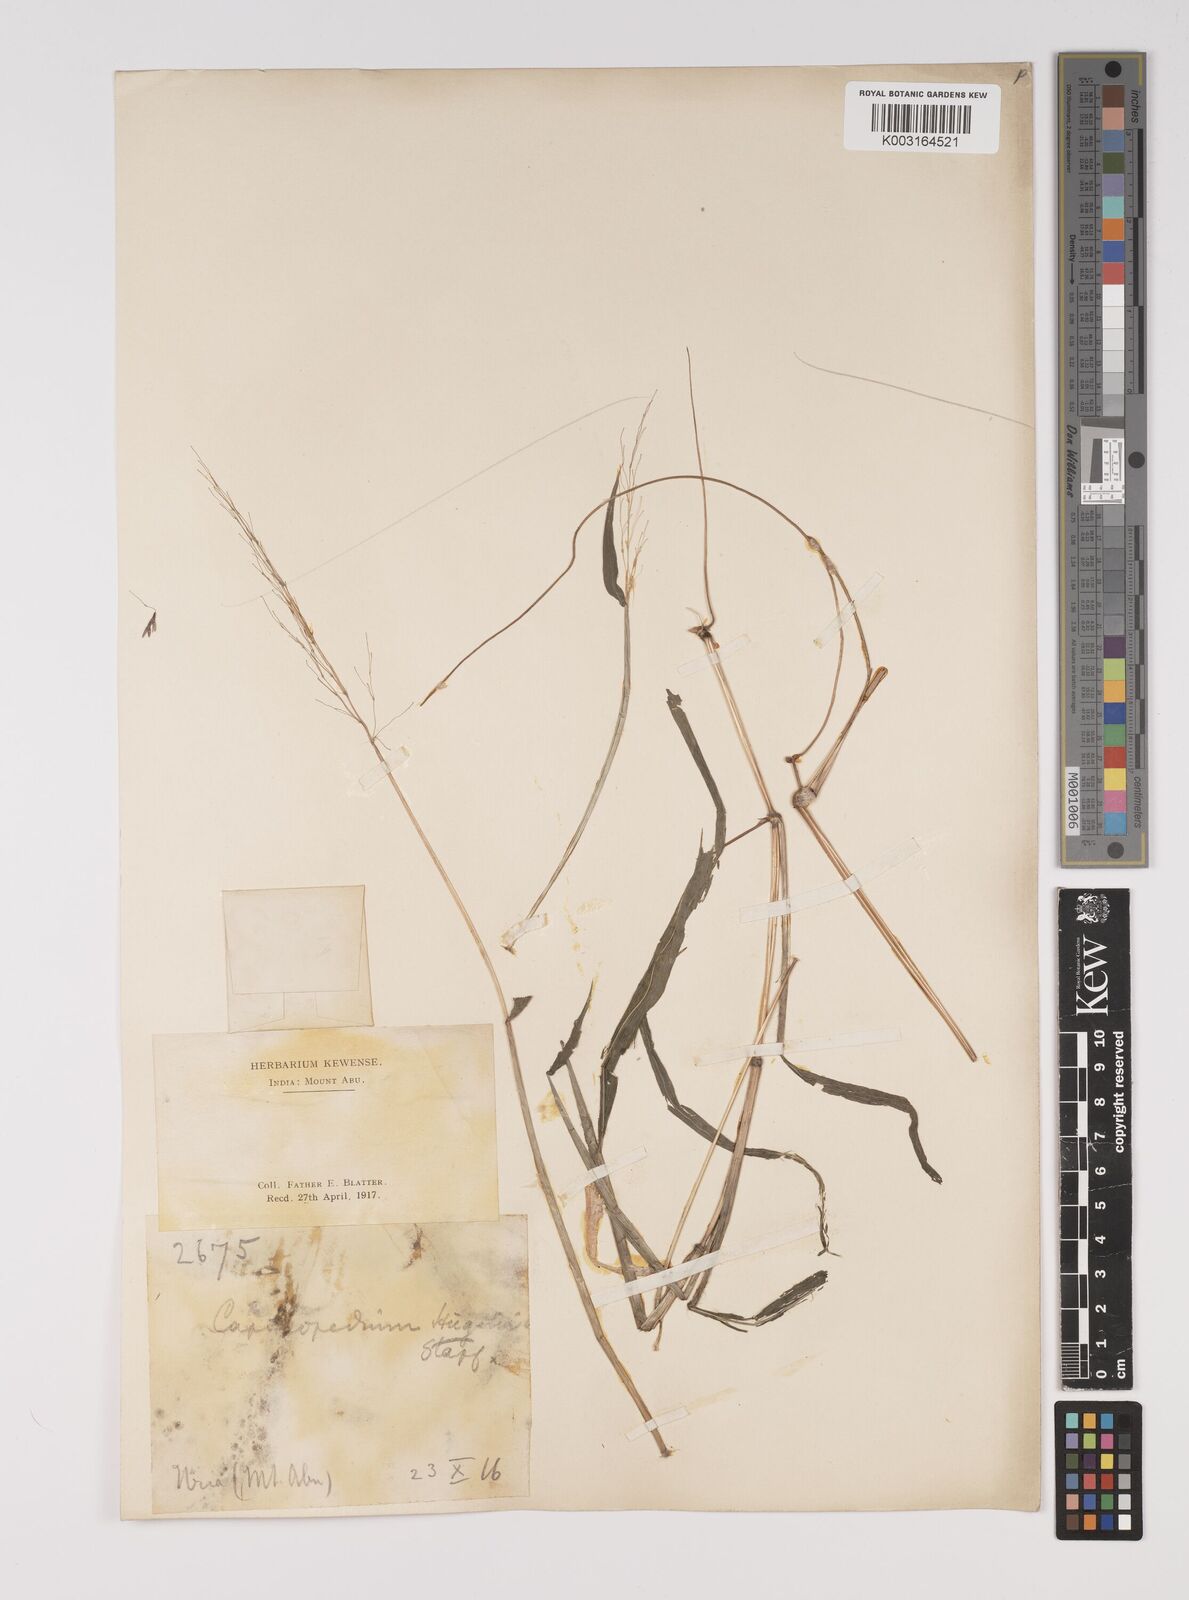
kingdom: Plantae
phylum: Tracheophyta
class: Liliopsida
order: Poales
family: Poaceae
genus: Capillipedium
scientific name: Capillipedium huegelii
